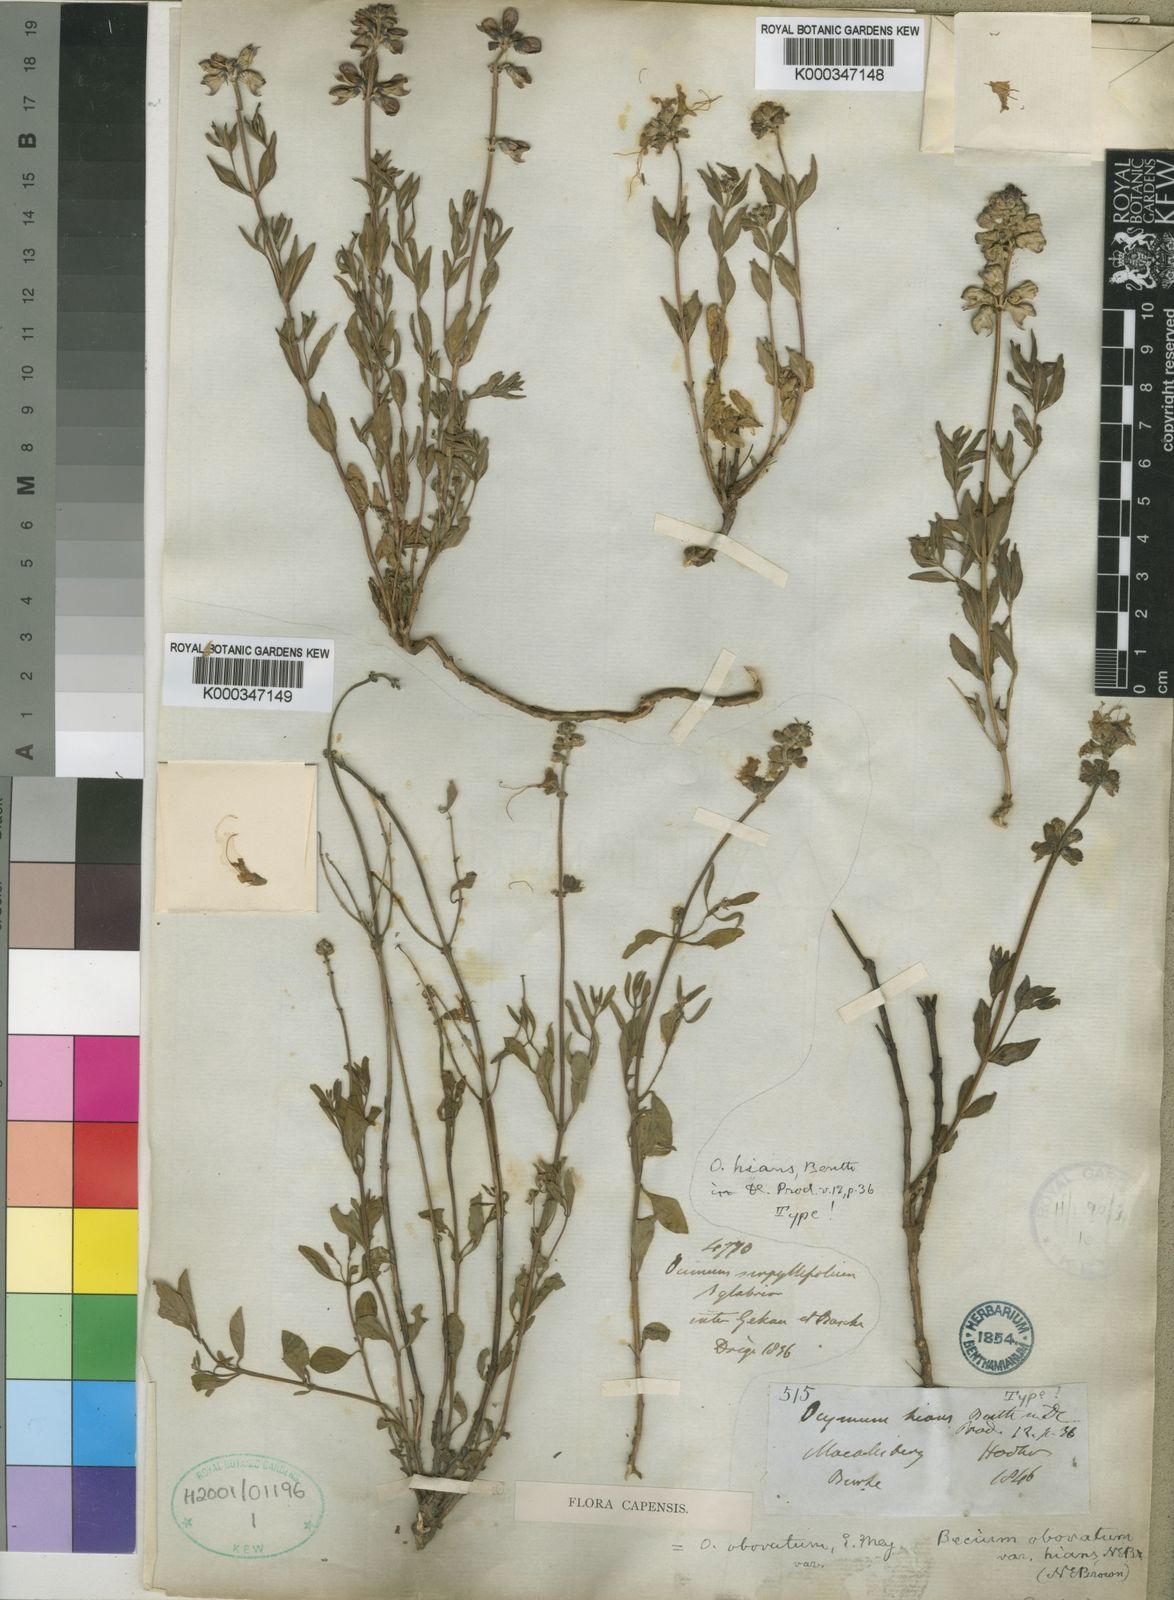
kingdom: Plantae
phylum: Tracheophyta
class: Magnoliopsida
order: Lamiales
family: Lamiaceae
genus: Ocimum
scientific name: Ocimum obovatum
